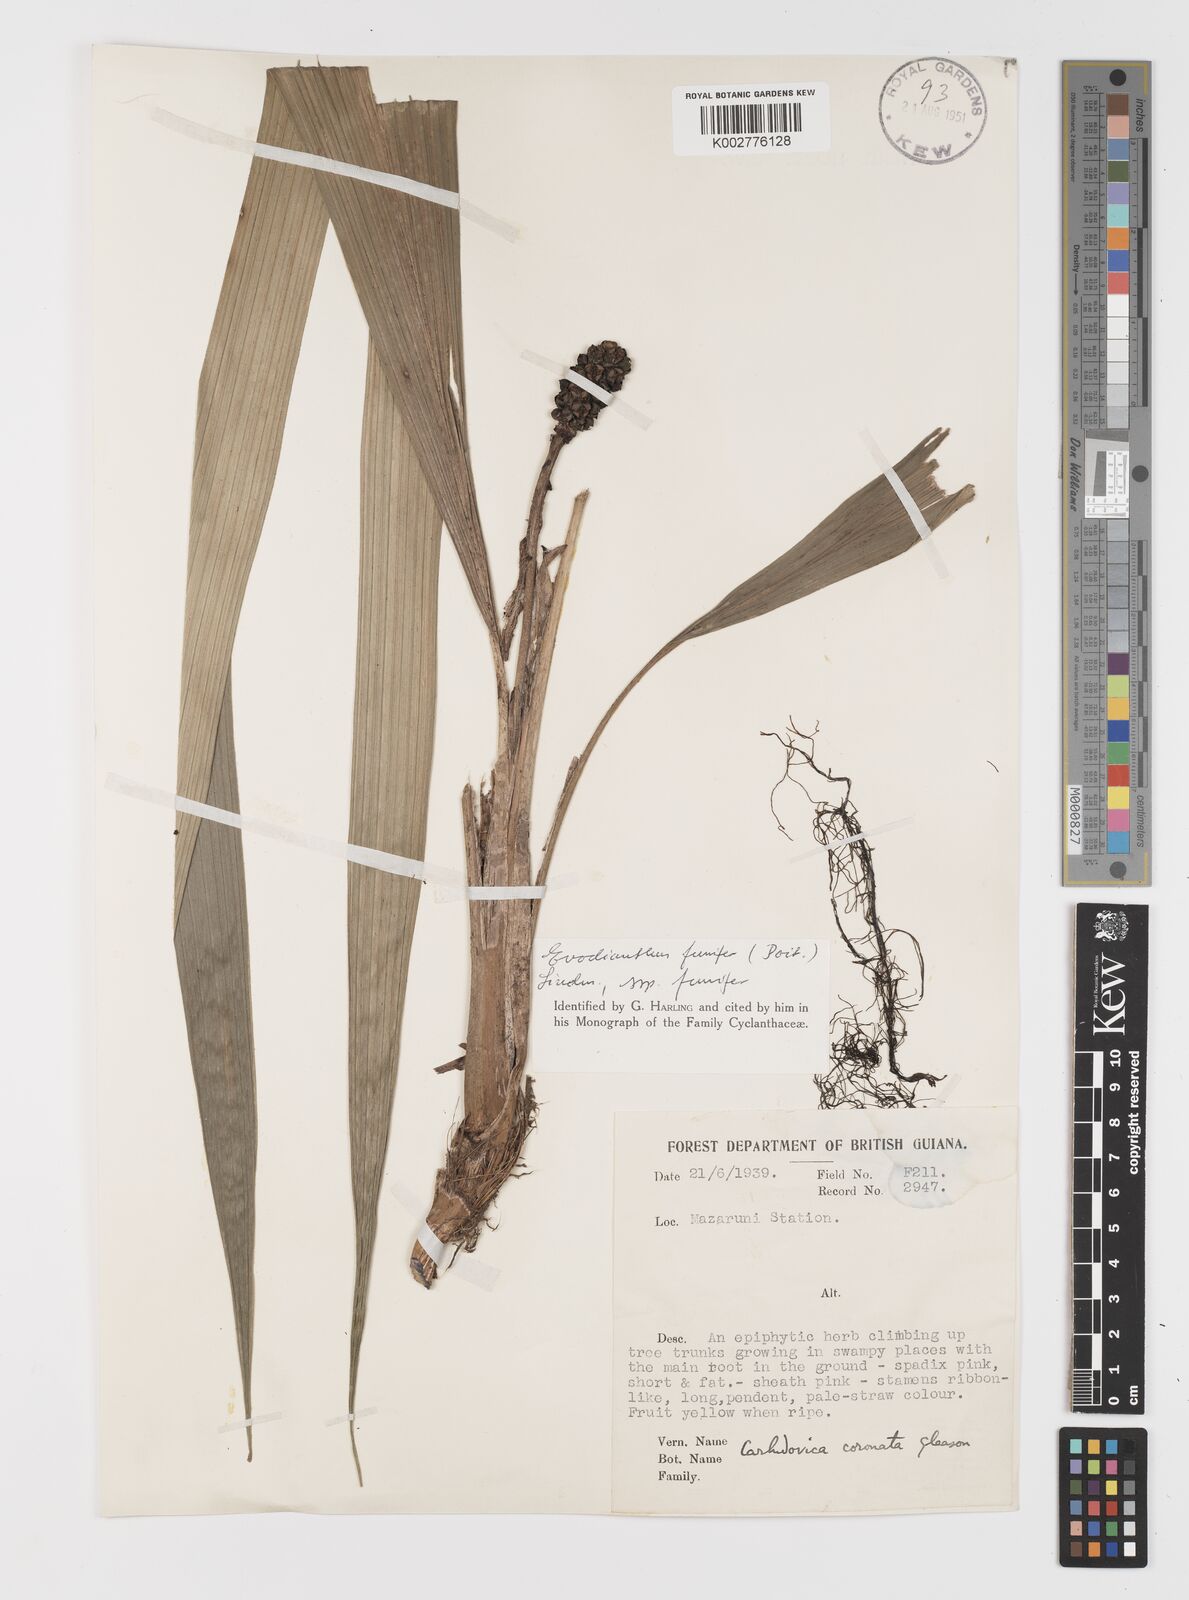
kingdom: Plantae
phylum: Tracheophyta
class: Liliopsida
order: Pandanales
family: Cyclanthaceae
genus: Evodianthus
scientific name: Evodianthus funifer
